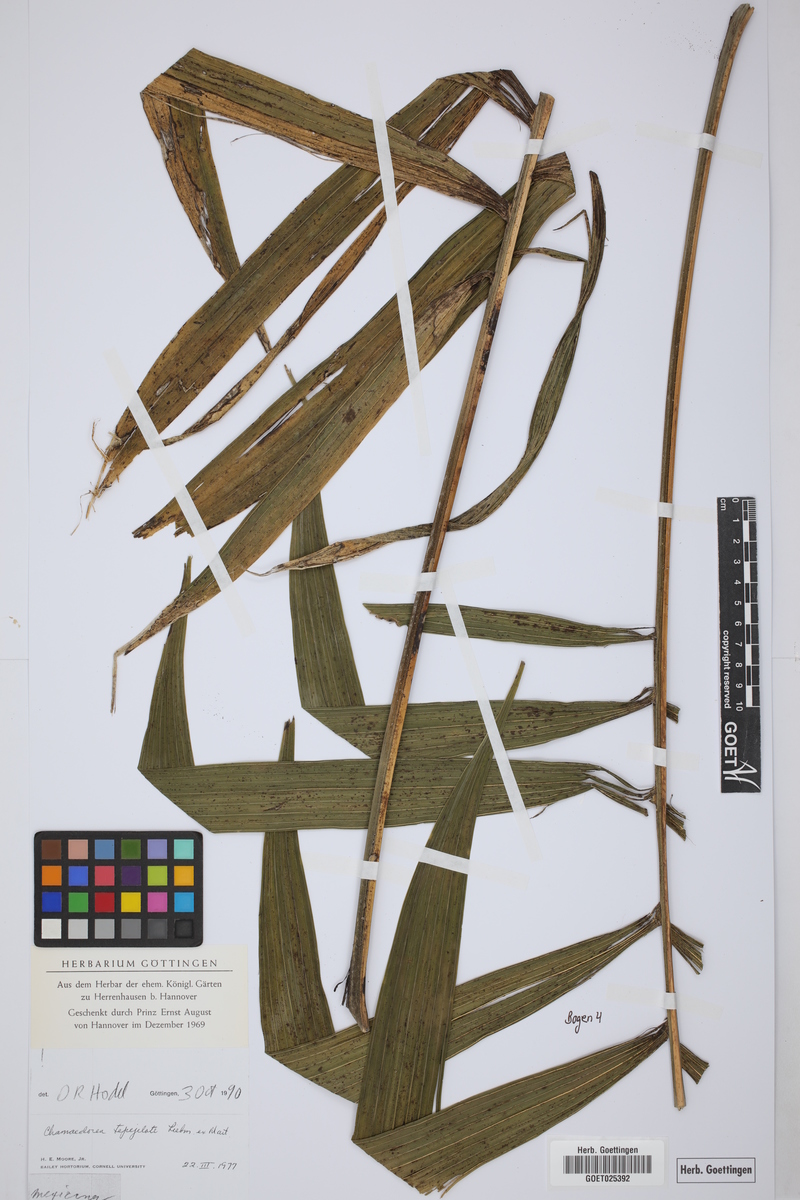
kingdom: Plantae
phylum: Tracheophyta
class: Liliopsida
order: Arecales
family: Arecaceae
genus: Chamaedorea
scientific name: Chamaedorea tepejilote
